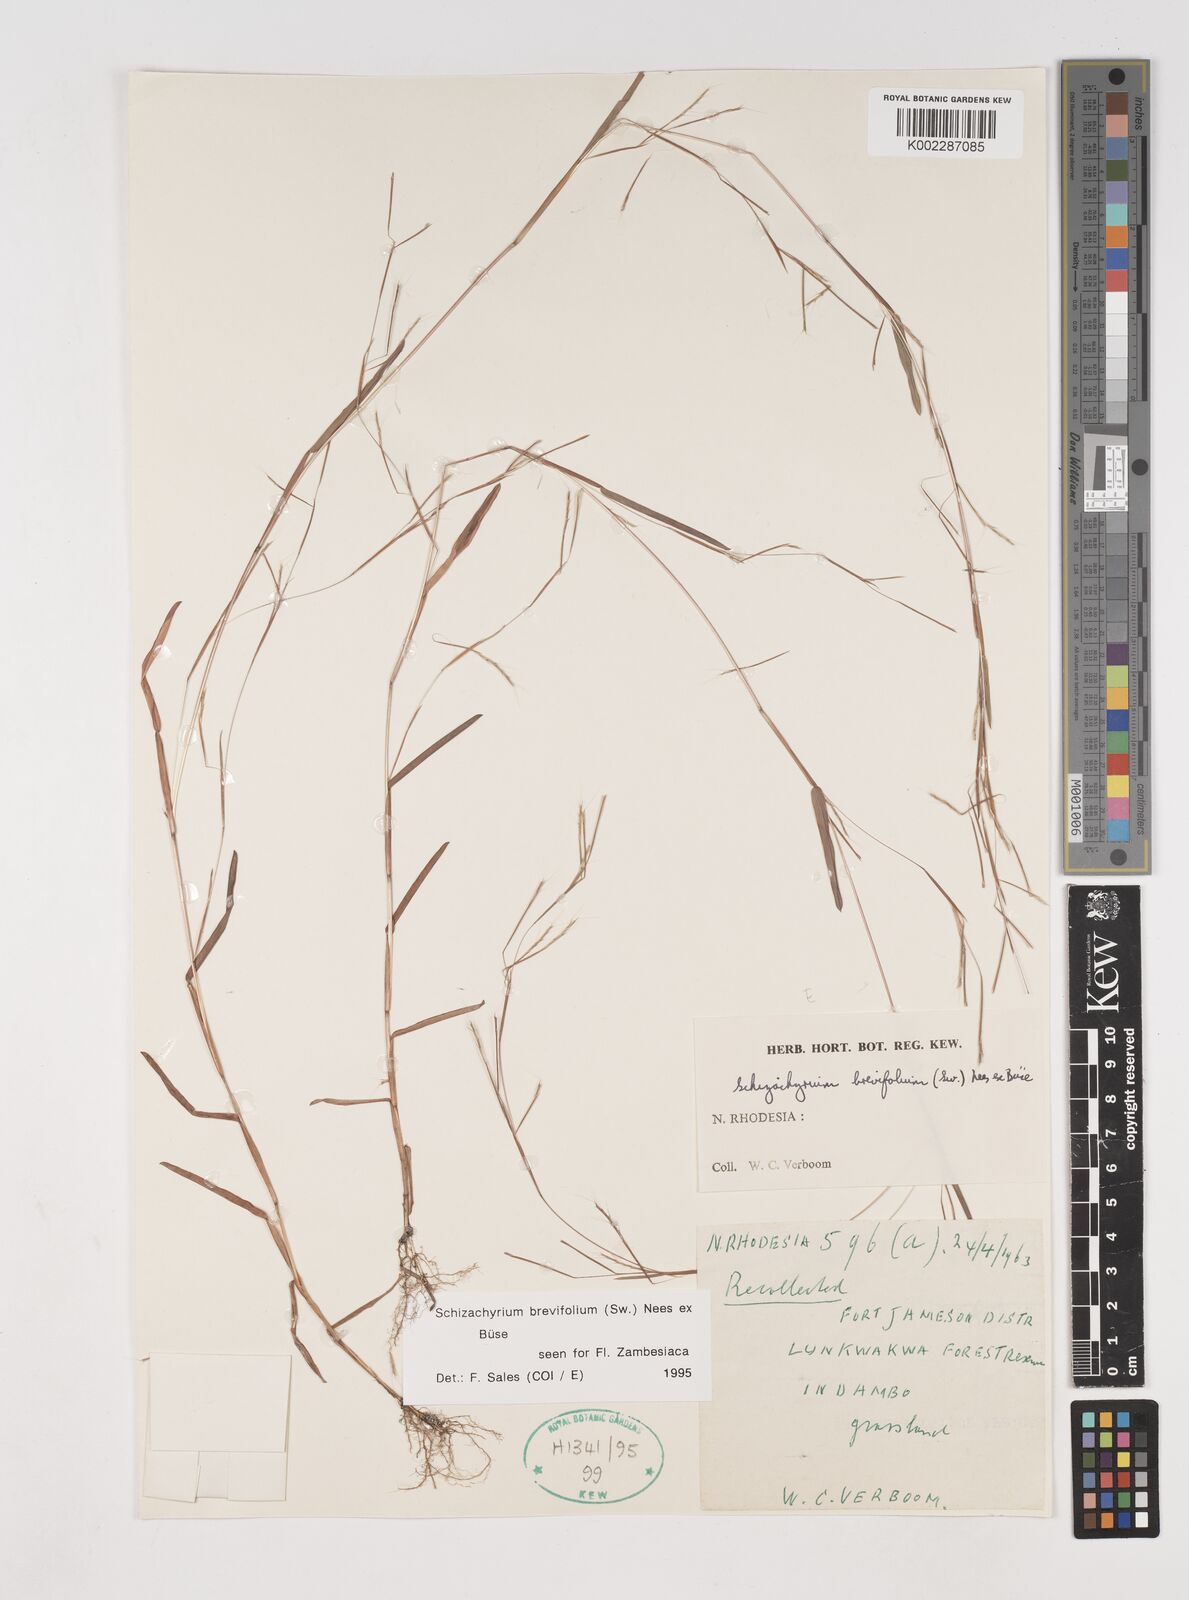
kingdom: Plantae
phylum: Tracheophyta
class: Liliopsida
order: Poales
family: Poaceae
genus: Schizachyrium
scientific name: Schizachyrium brevifolium
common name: Serillo dulce
